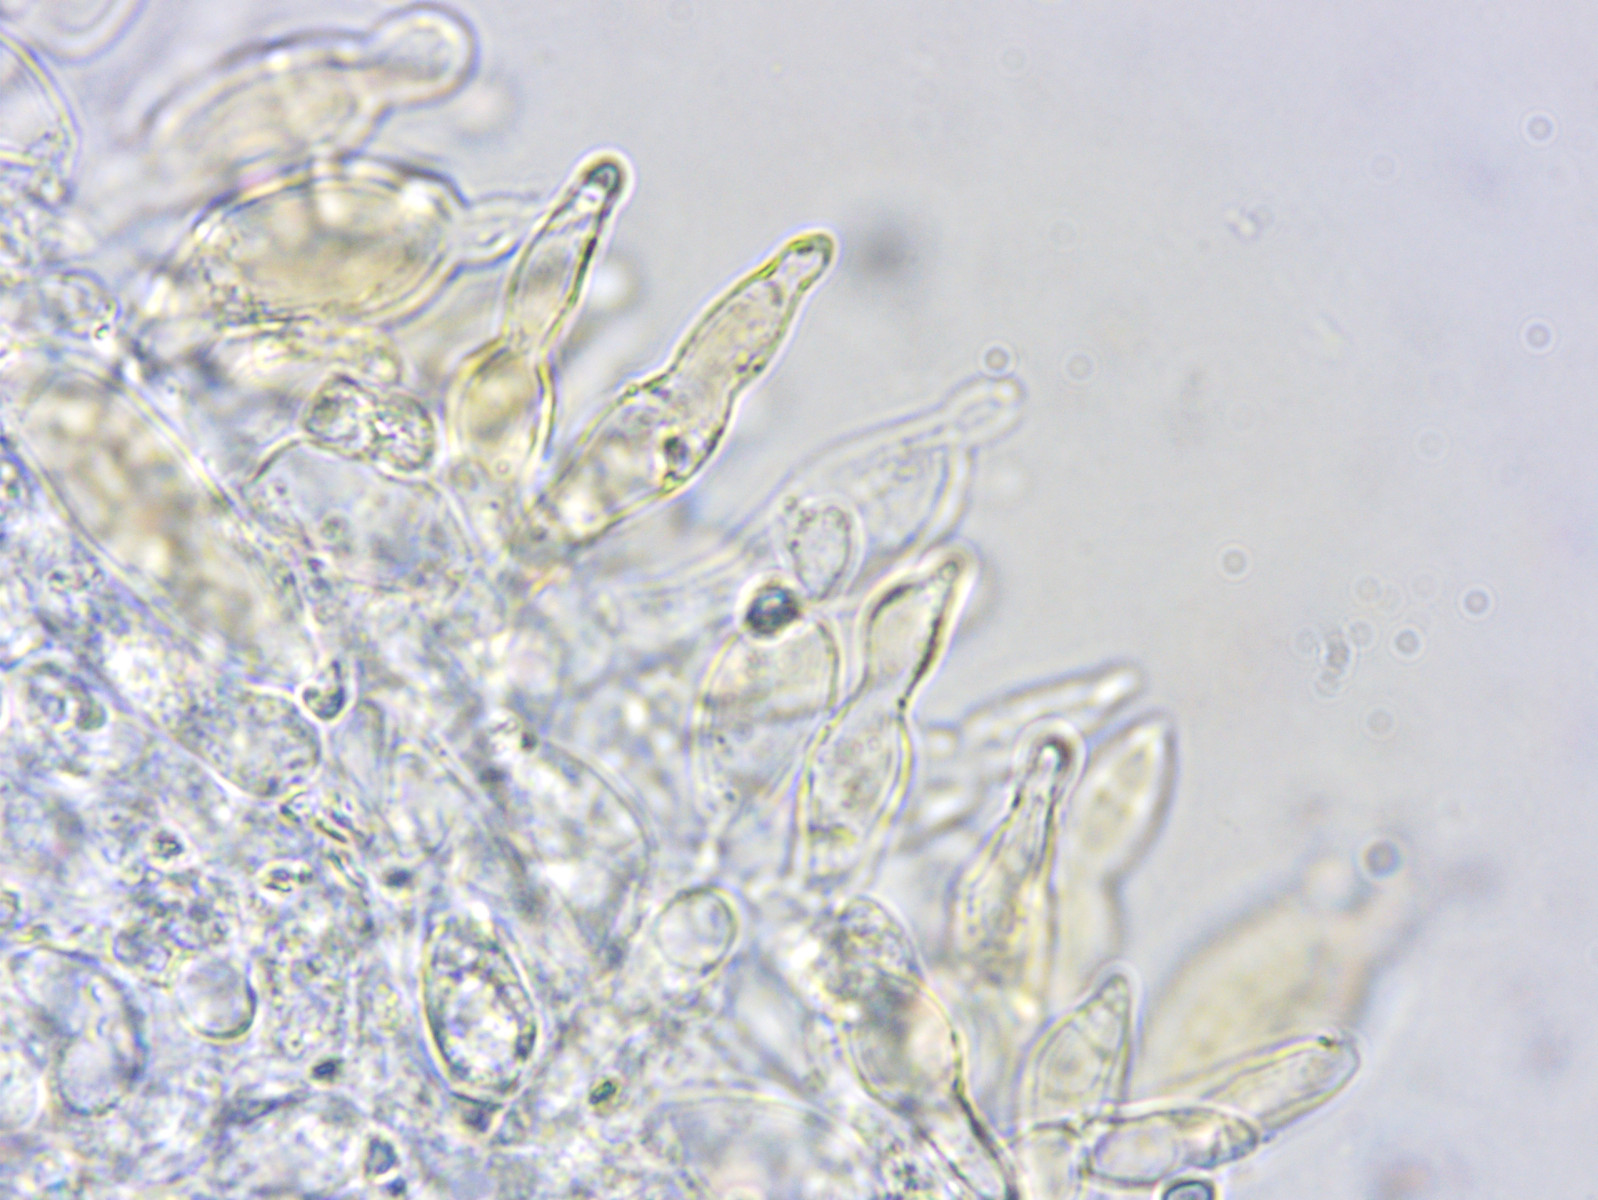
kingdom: Fungi
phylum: Basidiomycota
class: Agaricomycetes
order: Agaricales
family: Mycenaceae
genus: Mycena
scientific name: Mycena citrinomarginata
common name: gulægget huesvamp
